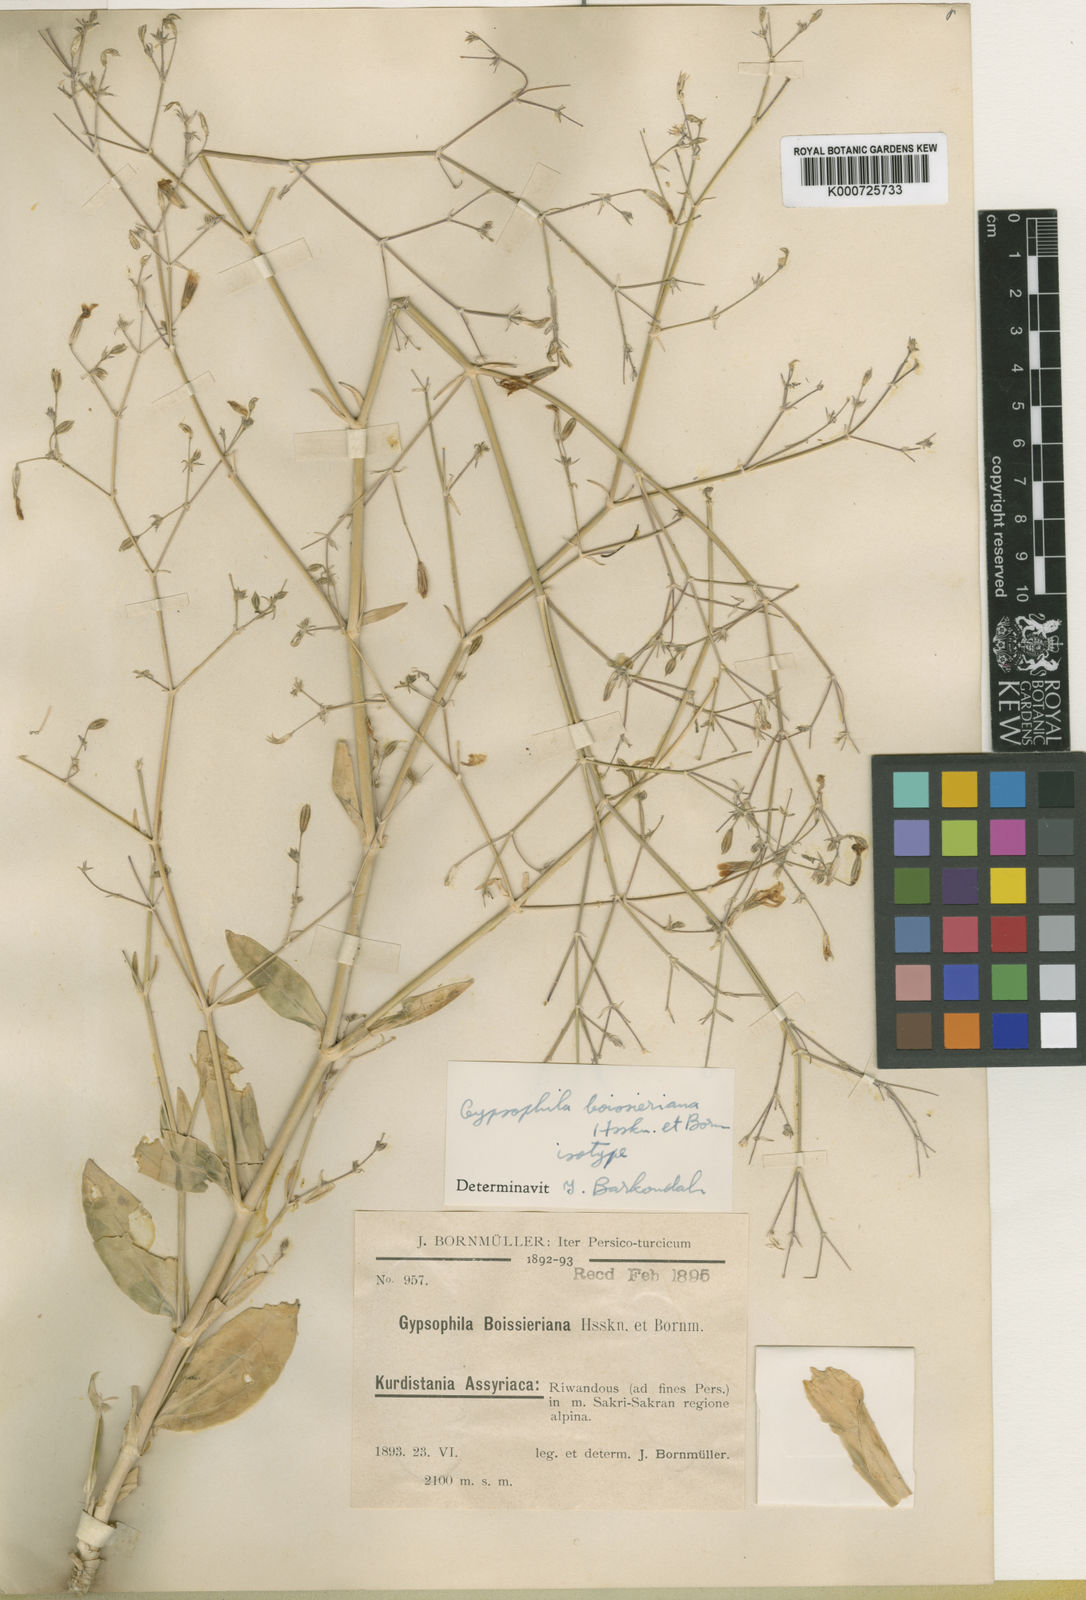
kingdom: Plantae
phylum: Tracheophyta
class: Magnoliopsida
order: Caryophyllales
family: Caryophyllaceae
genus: Gypsophila
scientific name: Gypsophila platyphylla
